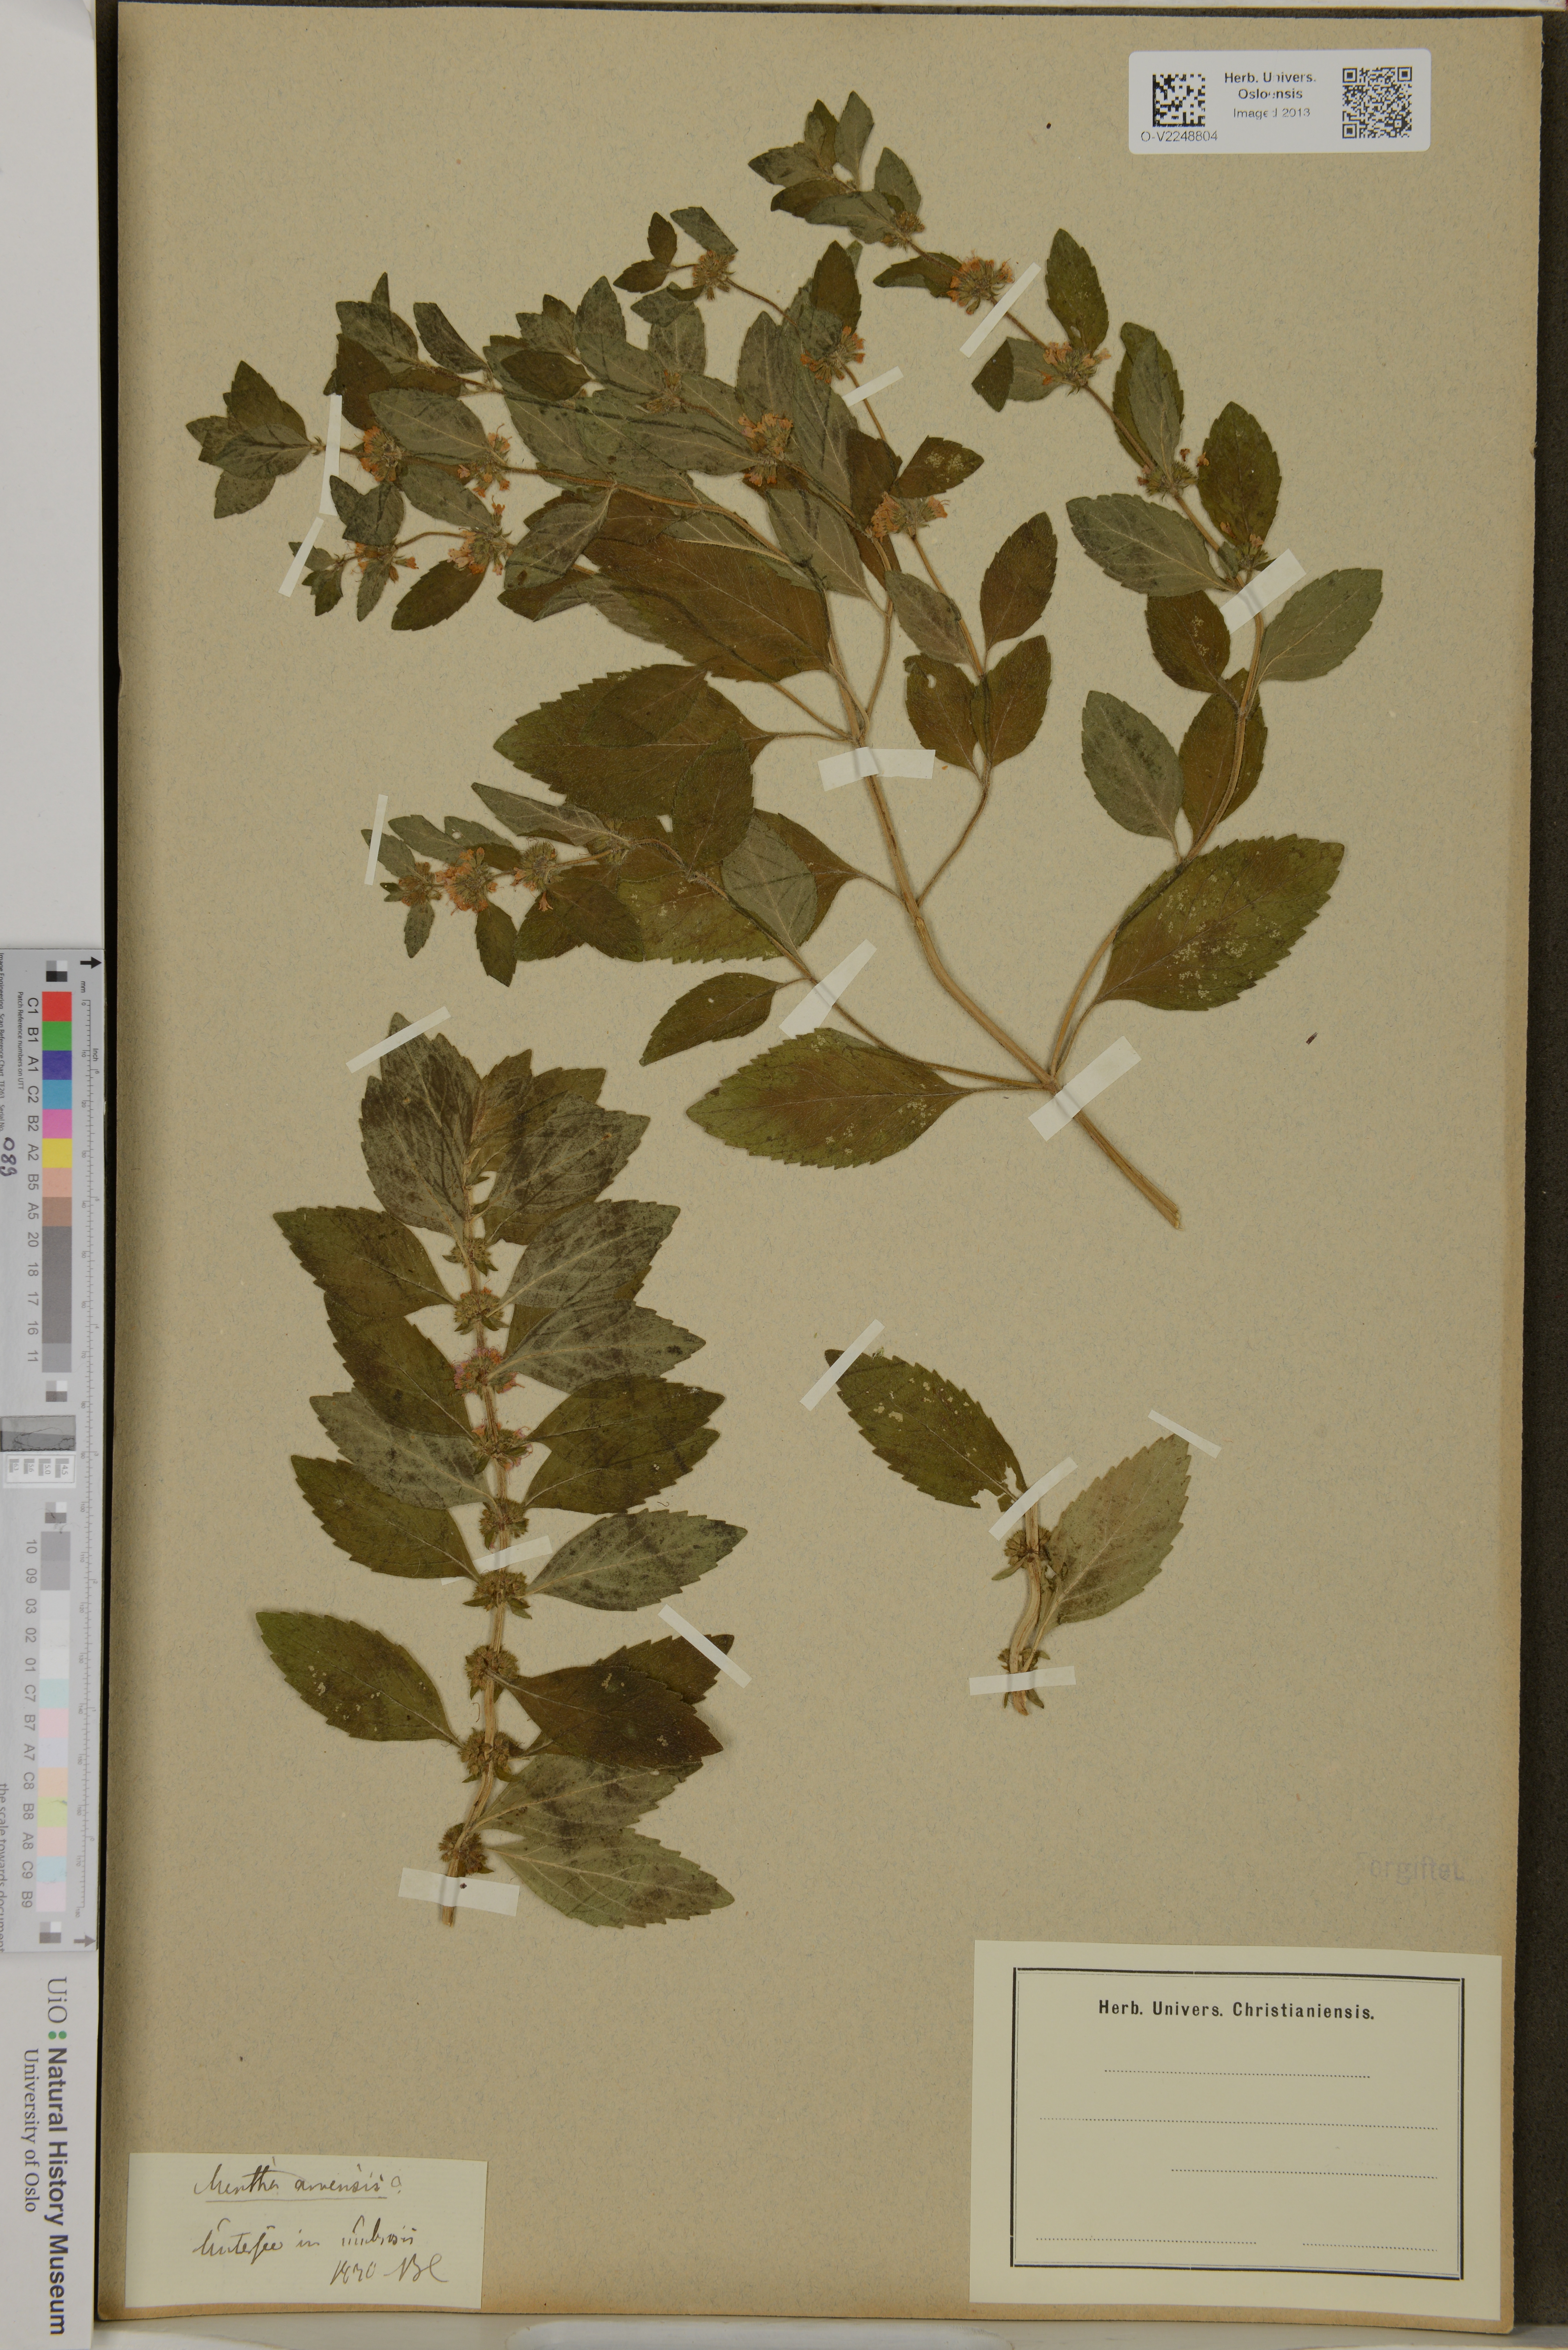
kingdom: Plantae
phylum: Tracheophyta
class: Magnoliopsida
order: Lamiales
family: Lamiaceae
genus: Mentha
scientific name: Mentha arvensis
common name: Corn mint
